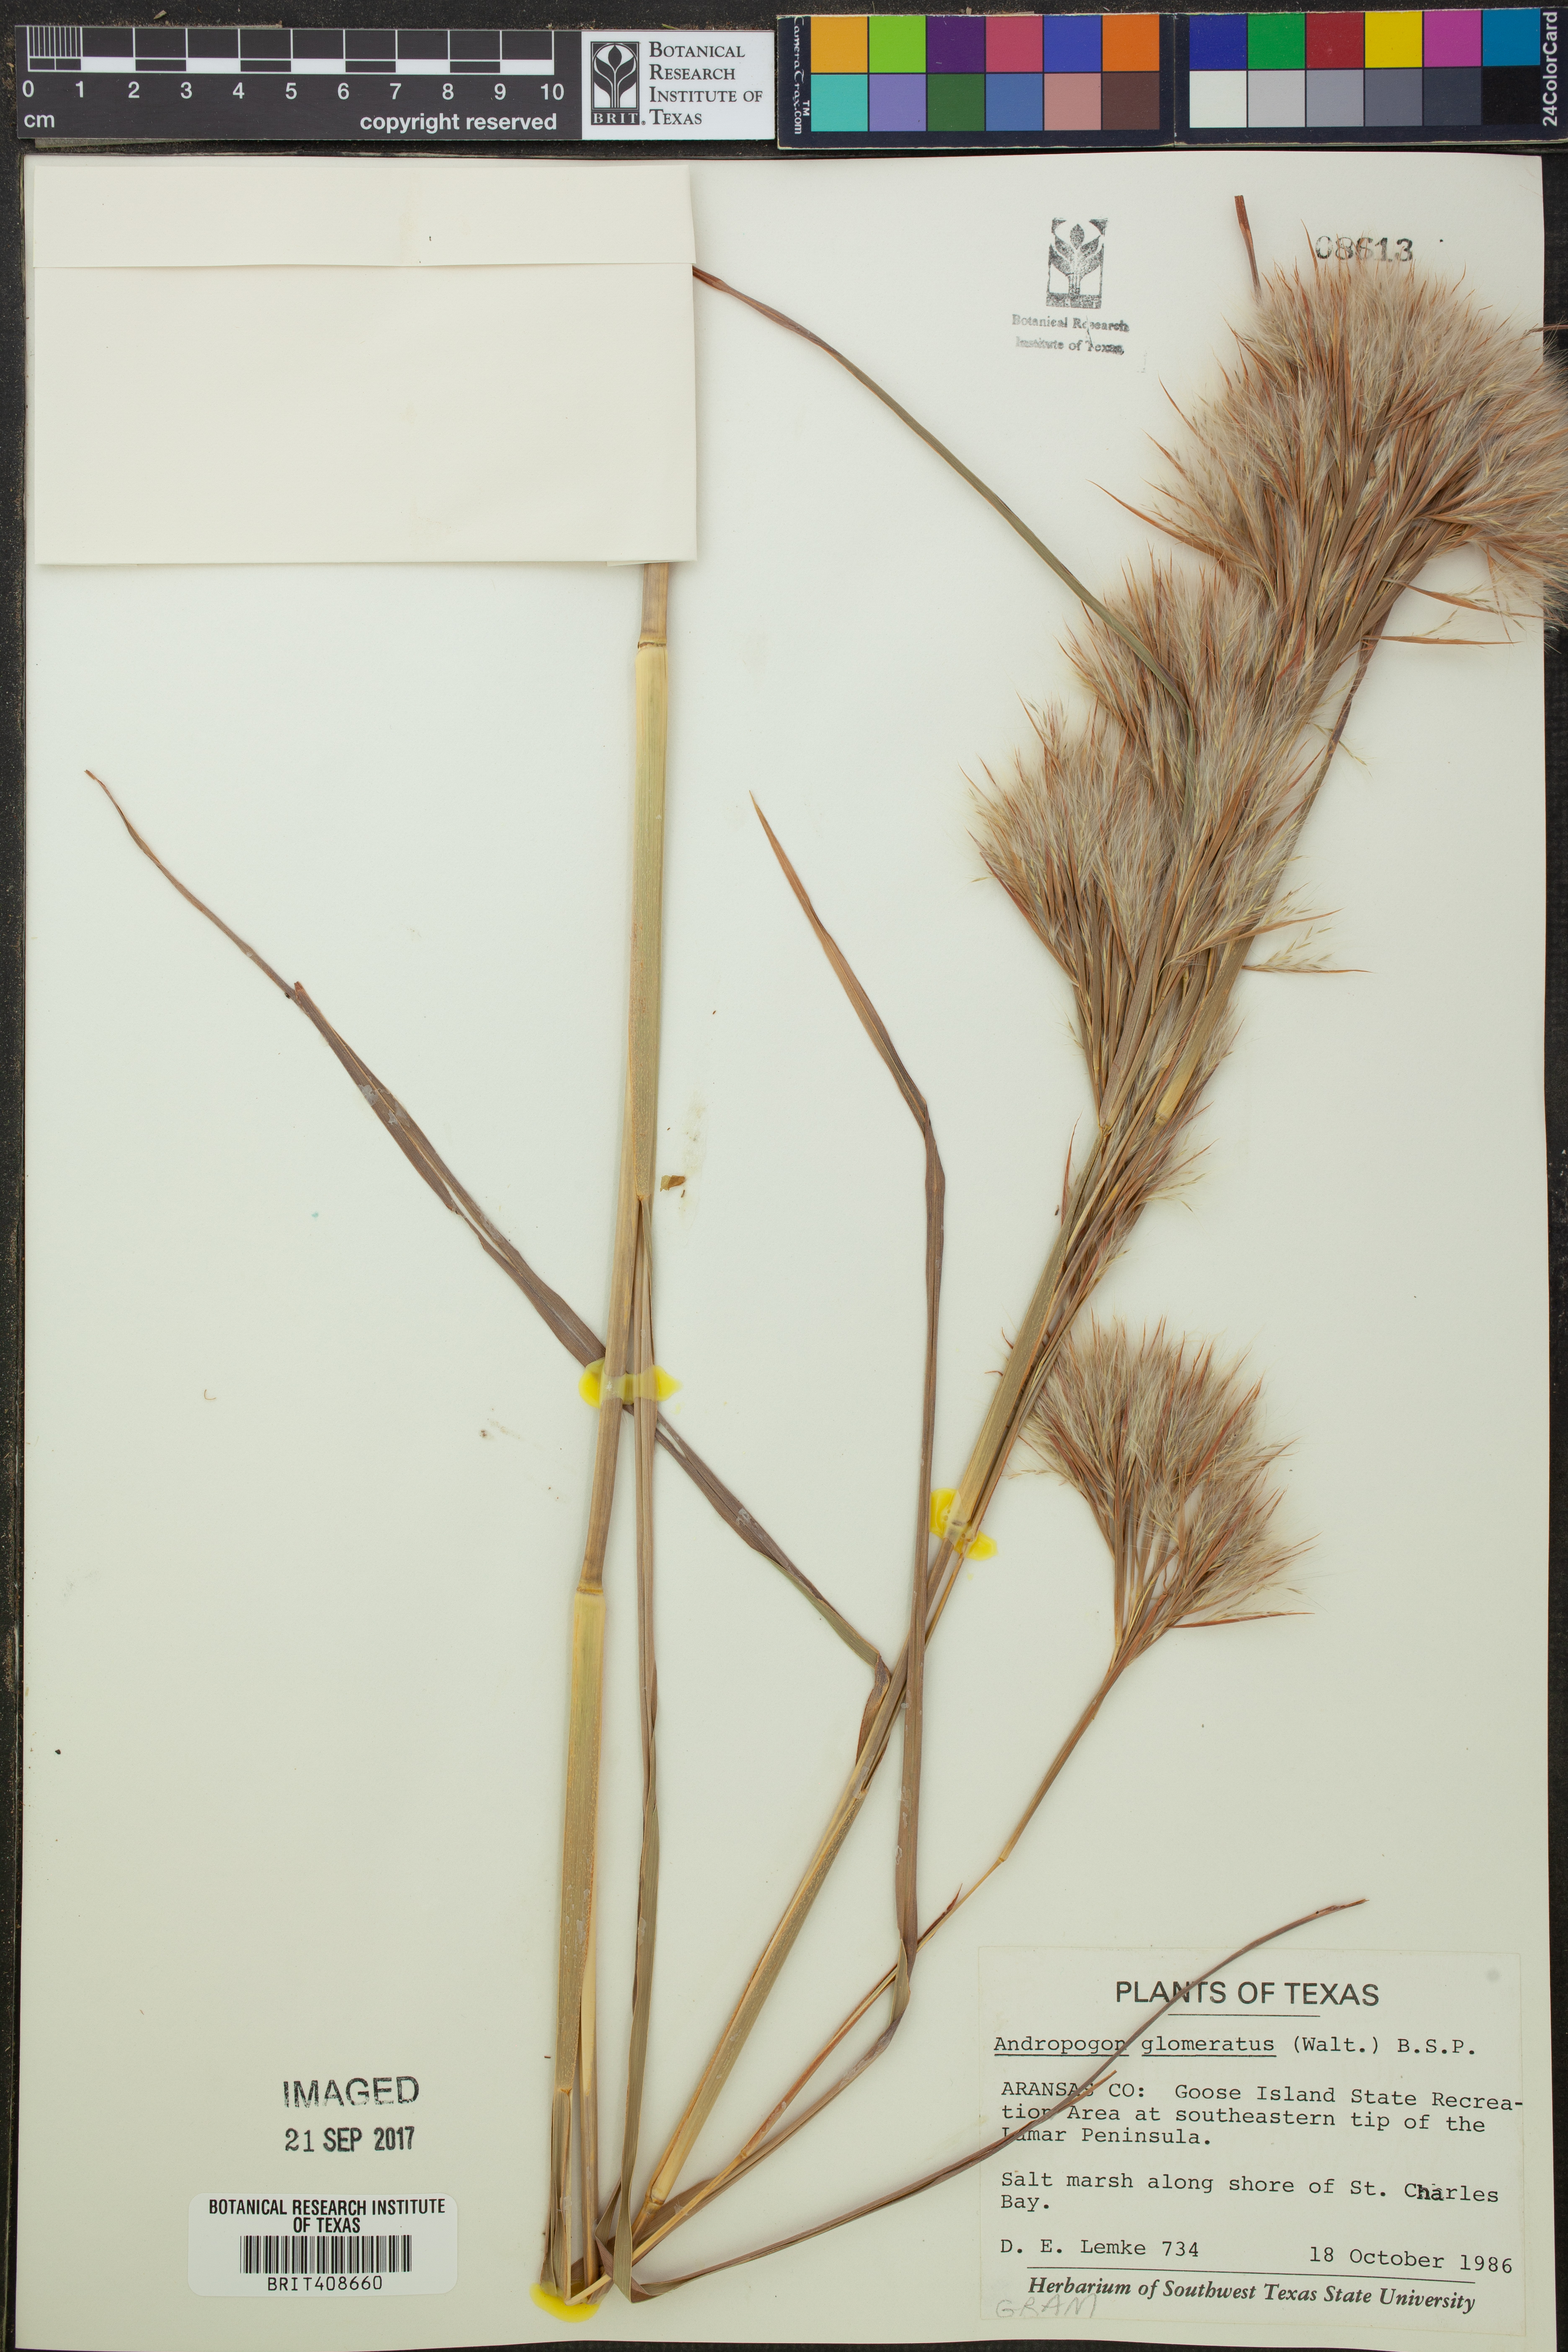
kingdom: Plantae
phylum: Tracheophyta
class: Liliopsida
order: Poales
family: Poaceae
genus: Andropogon
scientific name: Andropogon glomeratus
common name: Bushy beard grass
